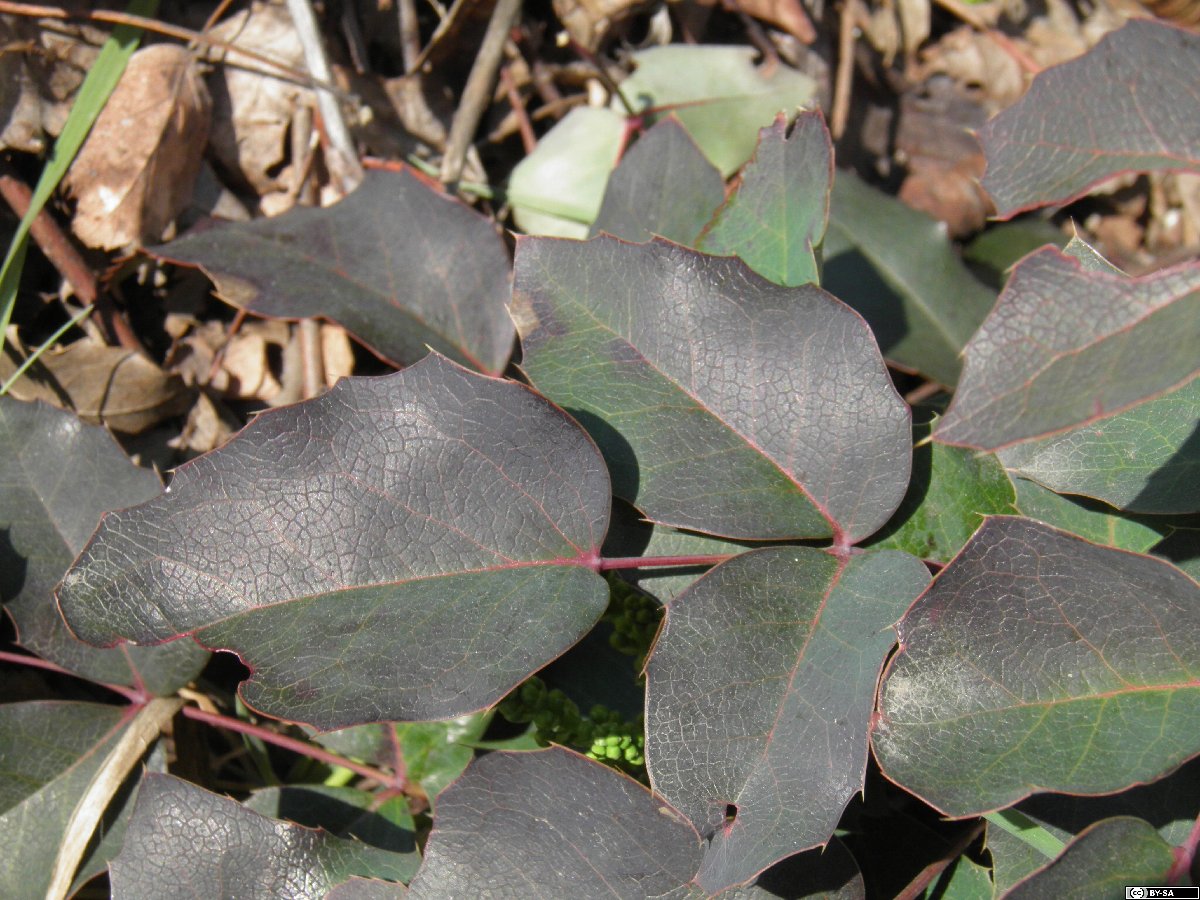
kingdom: Plantae
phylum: Tracheophyta
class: Magnoliopsida
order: Ranunculales
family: Berberidaceae
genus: Mahonia
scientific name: Mahonia decumbens
